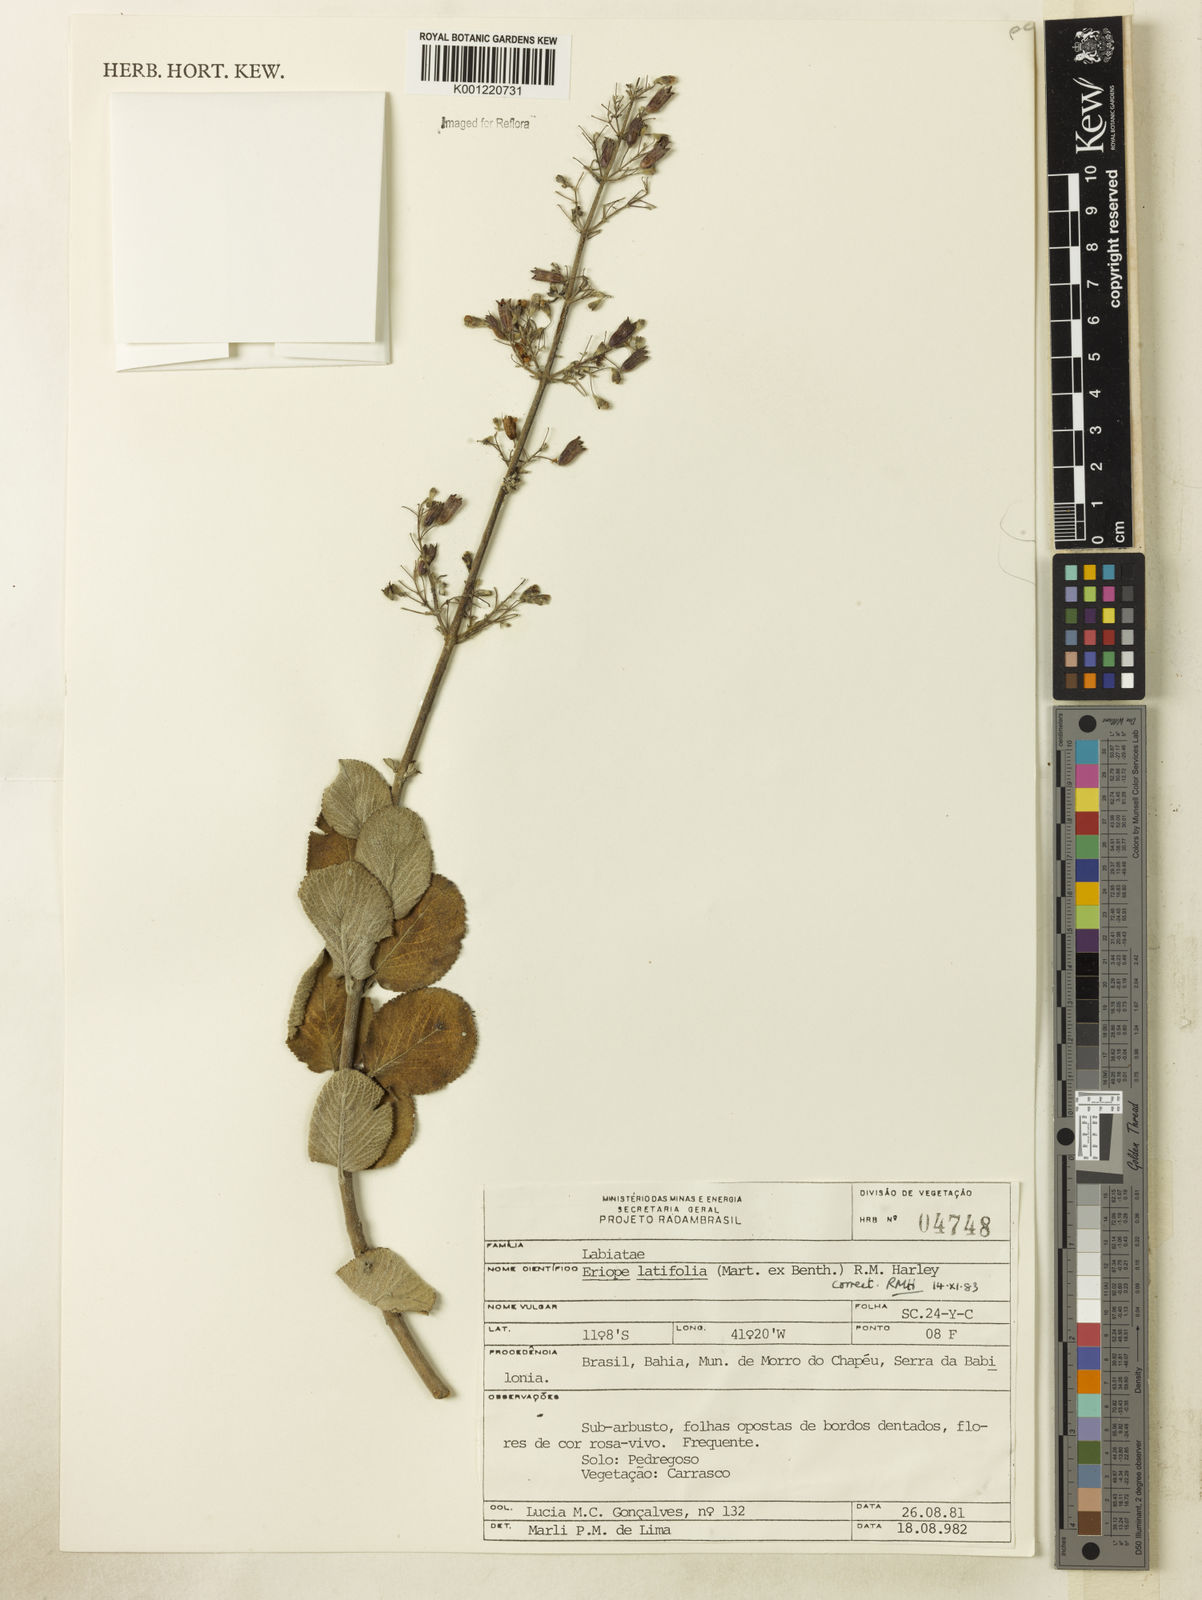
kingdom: Plantae
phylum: Tracheophyta
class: Magnoliopsida
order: Lamiales
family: Lamiaceae
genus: Eriope
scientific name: Eriope latifolia
